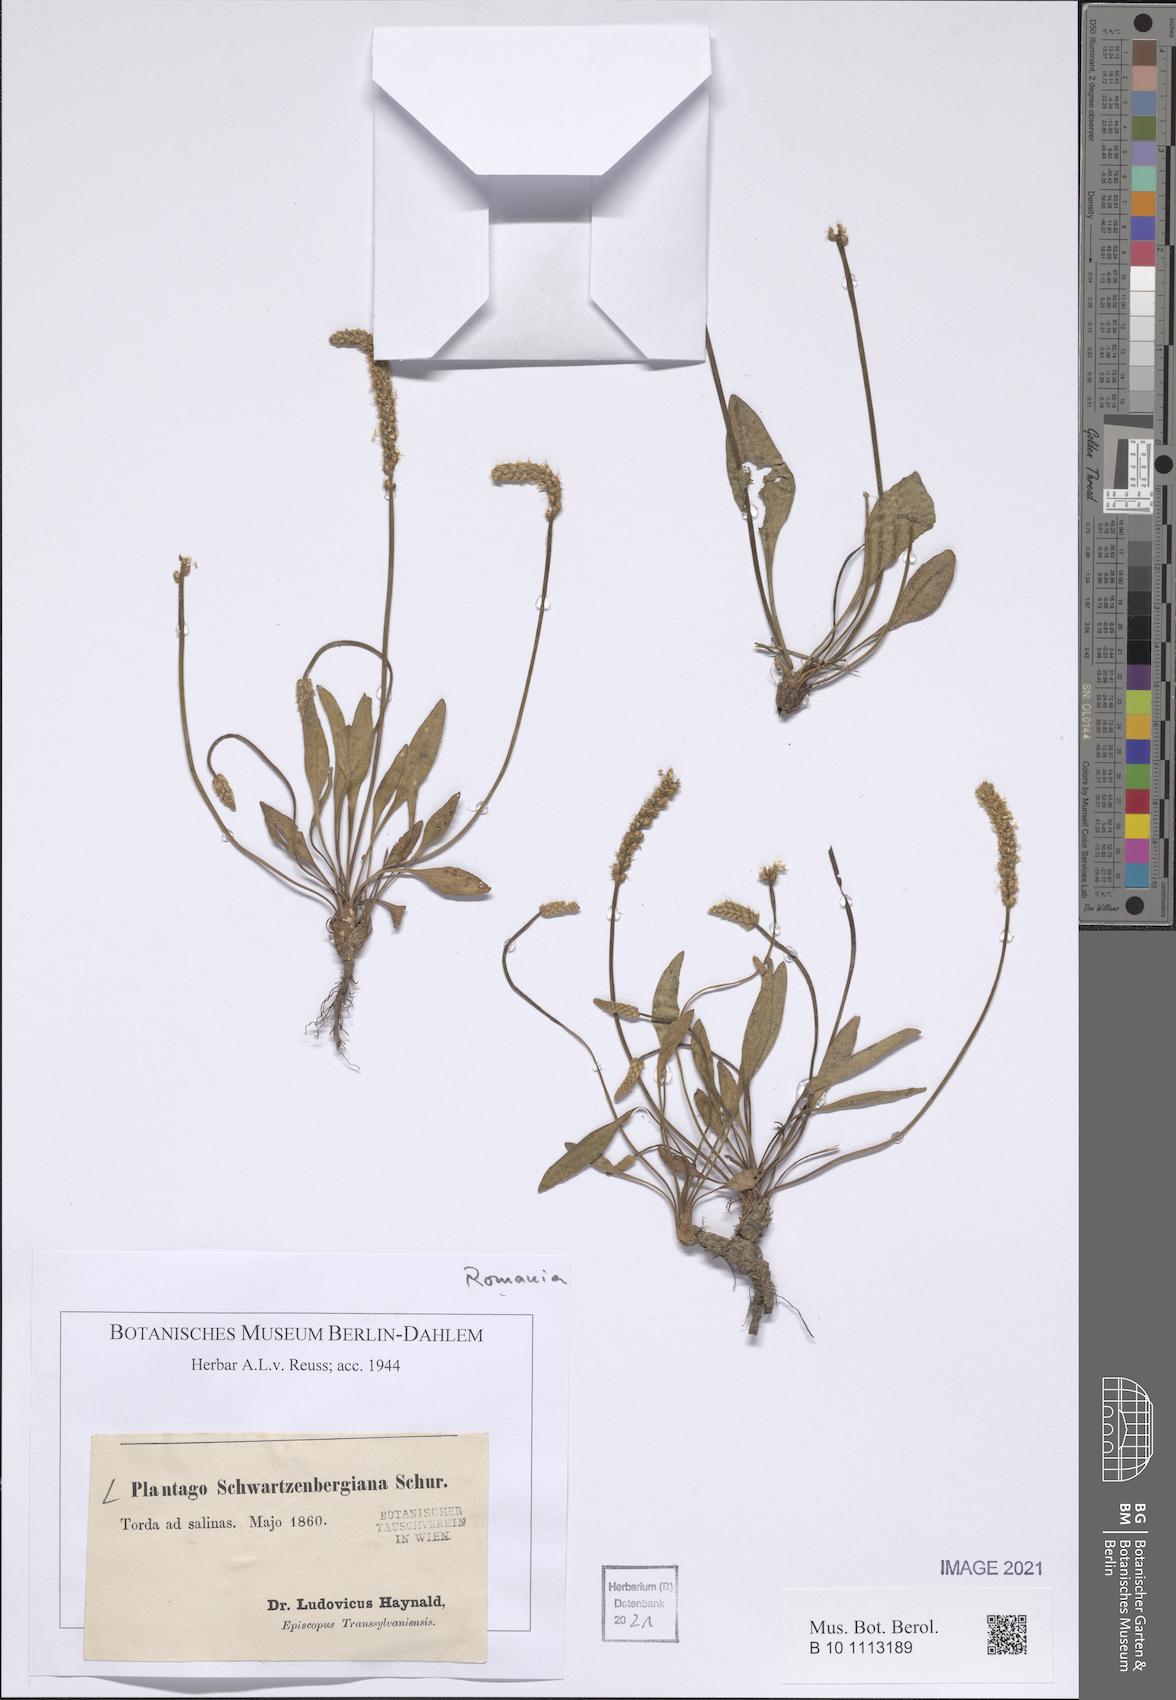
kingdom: Plantae
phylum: Tracheophyta
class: Magnoliopsida
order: Lamiales
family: Plantaginaceae
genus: Plantago
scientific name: Plantago schwarzenbergiana
